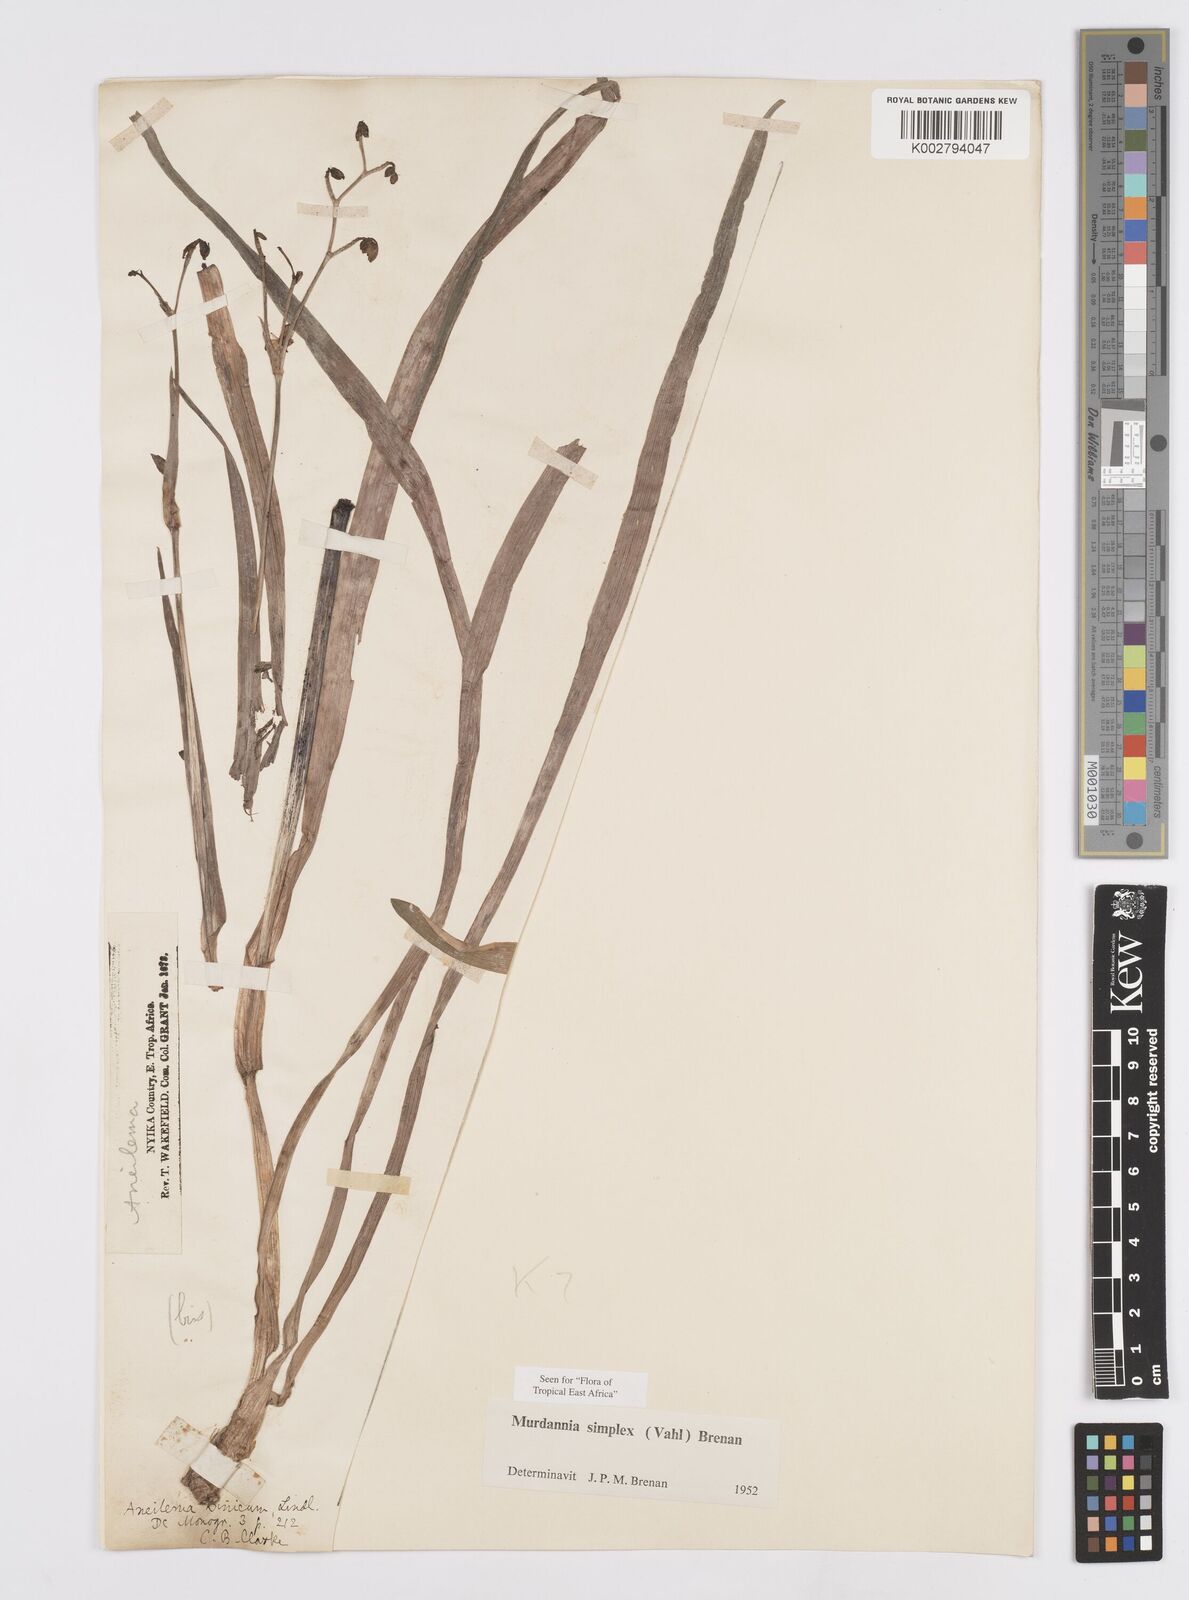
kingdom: Plantae
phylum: Tracheophyta
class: Liliopsida
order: Commelinales
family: Commelinaceae
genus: Murdannia
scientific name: Murdannia simplex
